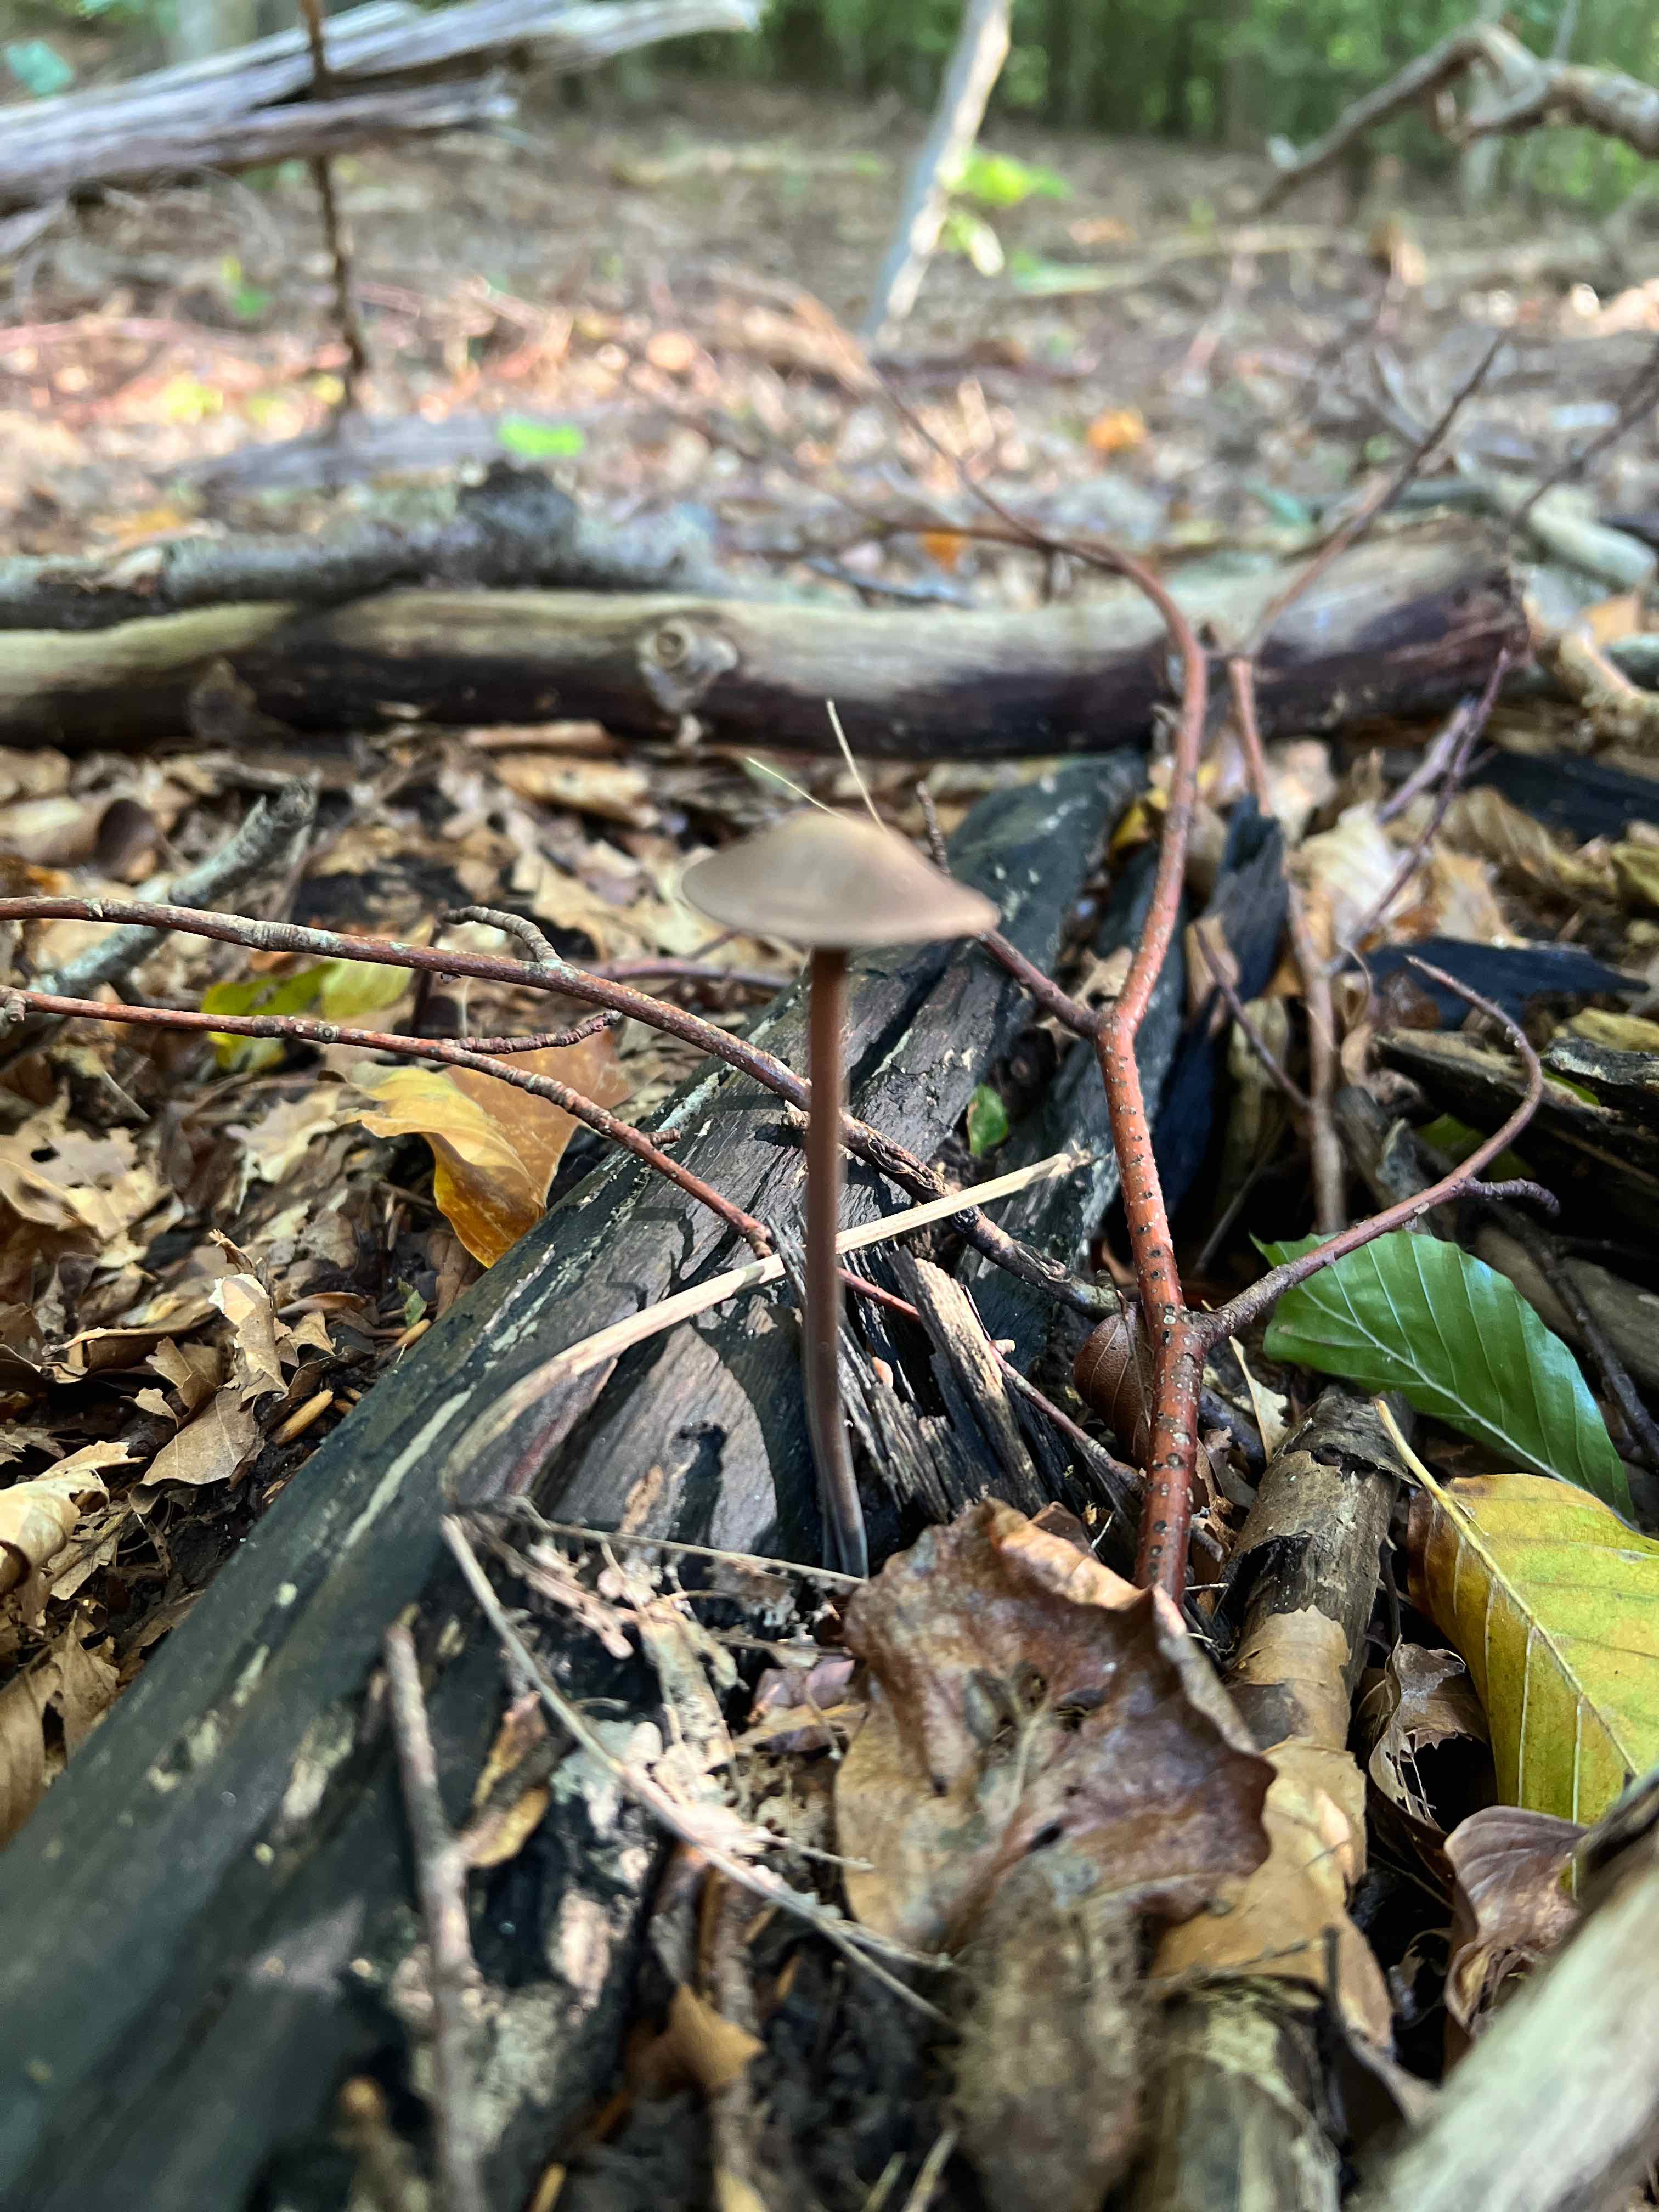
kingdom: Fungi
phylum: Basidiomycota
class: Agaricomycetes
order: Agaricales
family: Omphalotaceae
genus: Mycetinis
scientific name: Mycetinis alliaceus
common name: stor løghat
